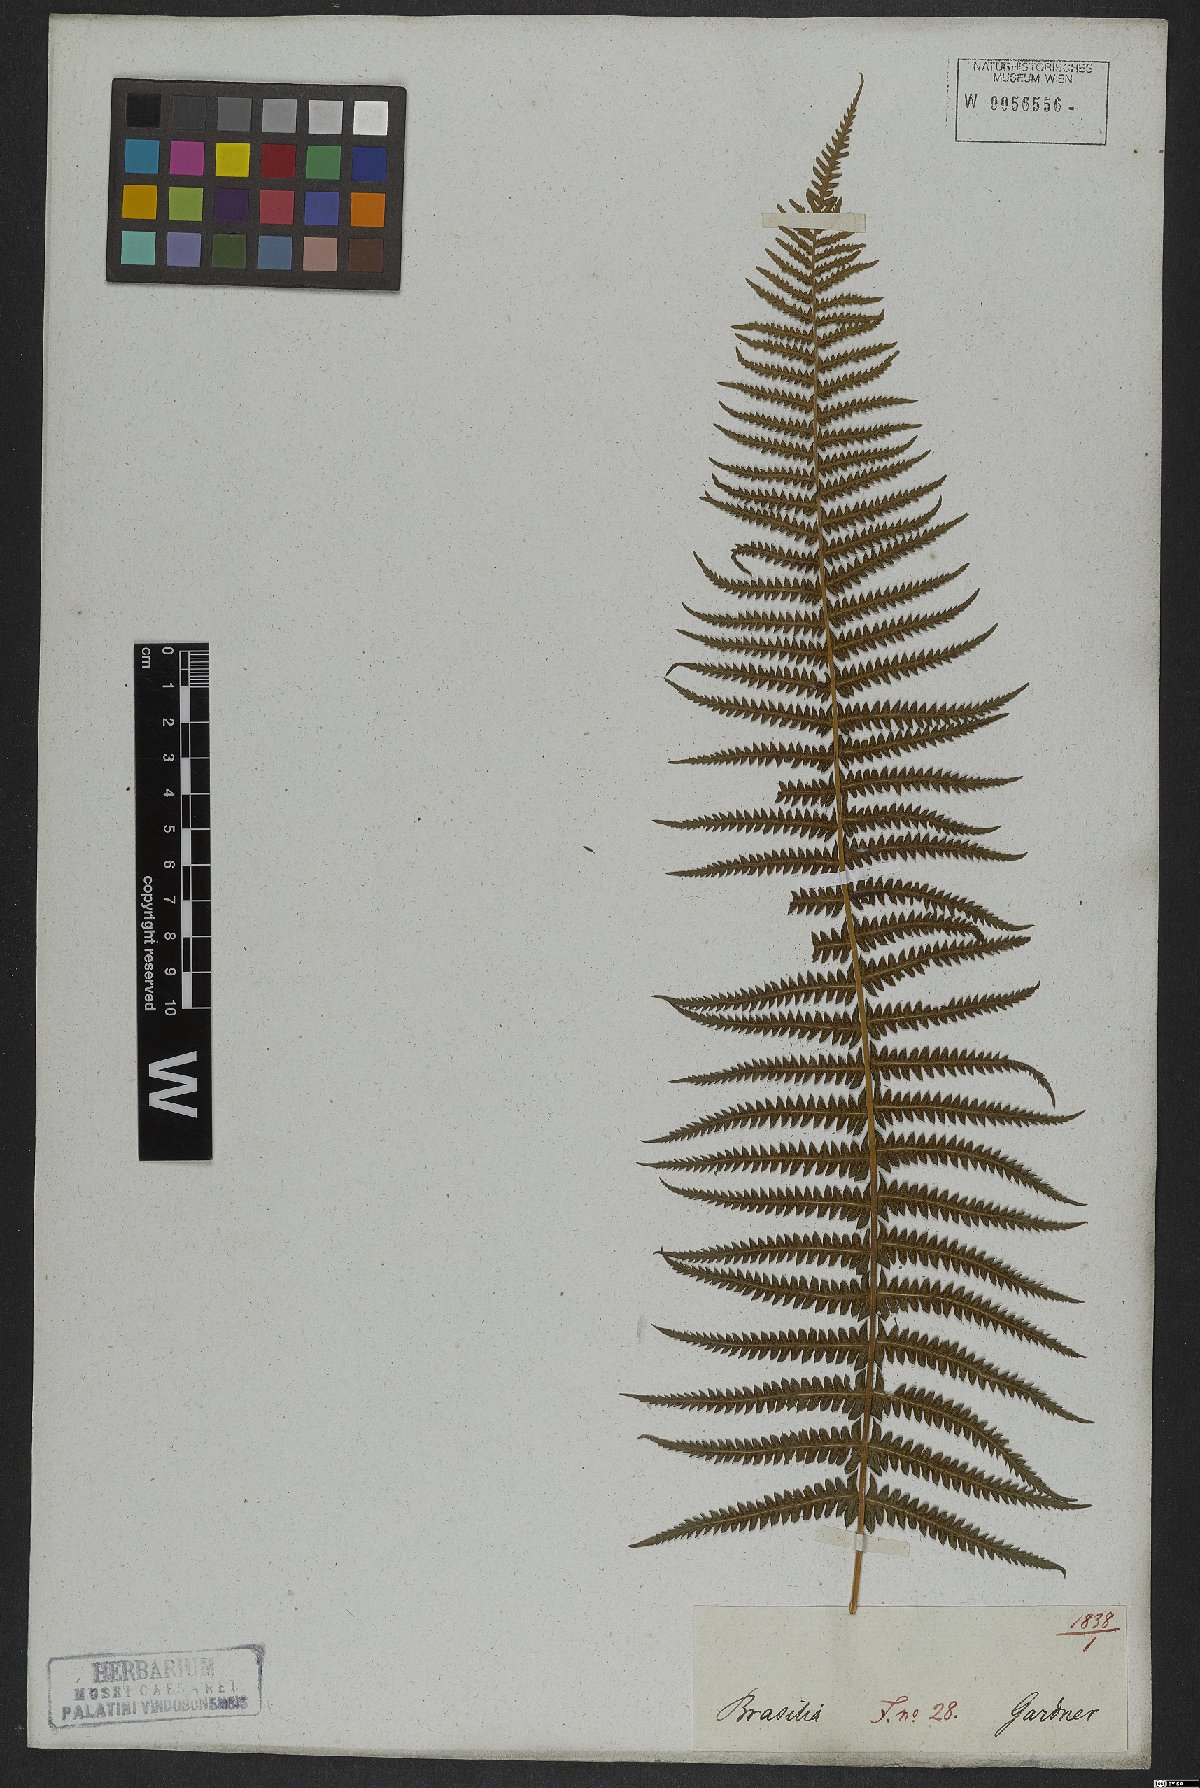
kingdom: Plantae
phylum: Tracheophyta
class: Polypodiopsida
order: Polypodiales
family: Thelypteridaceae
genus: Amauropelta
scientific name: Amauropelta opposita
